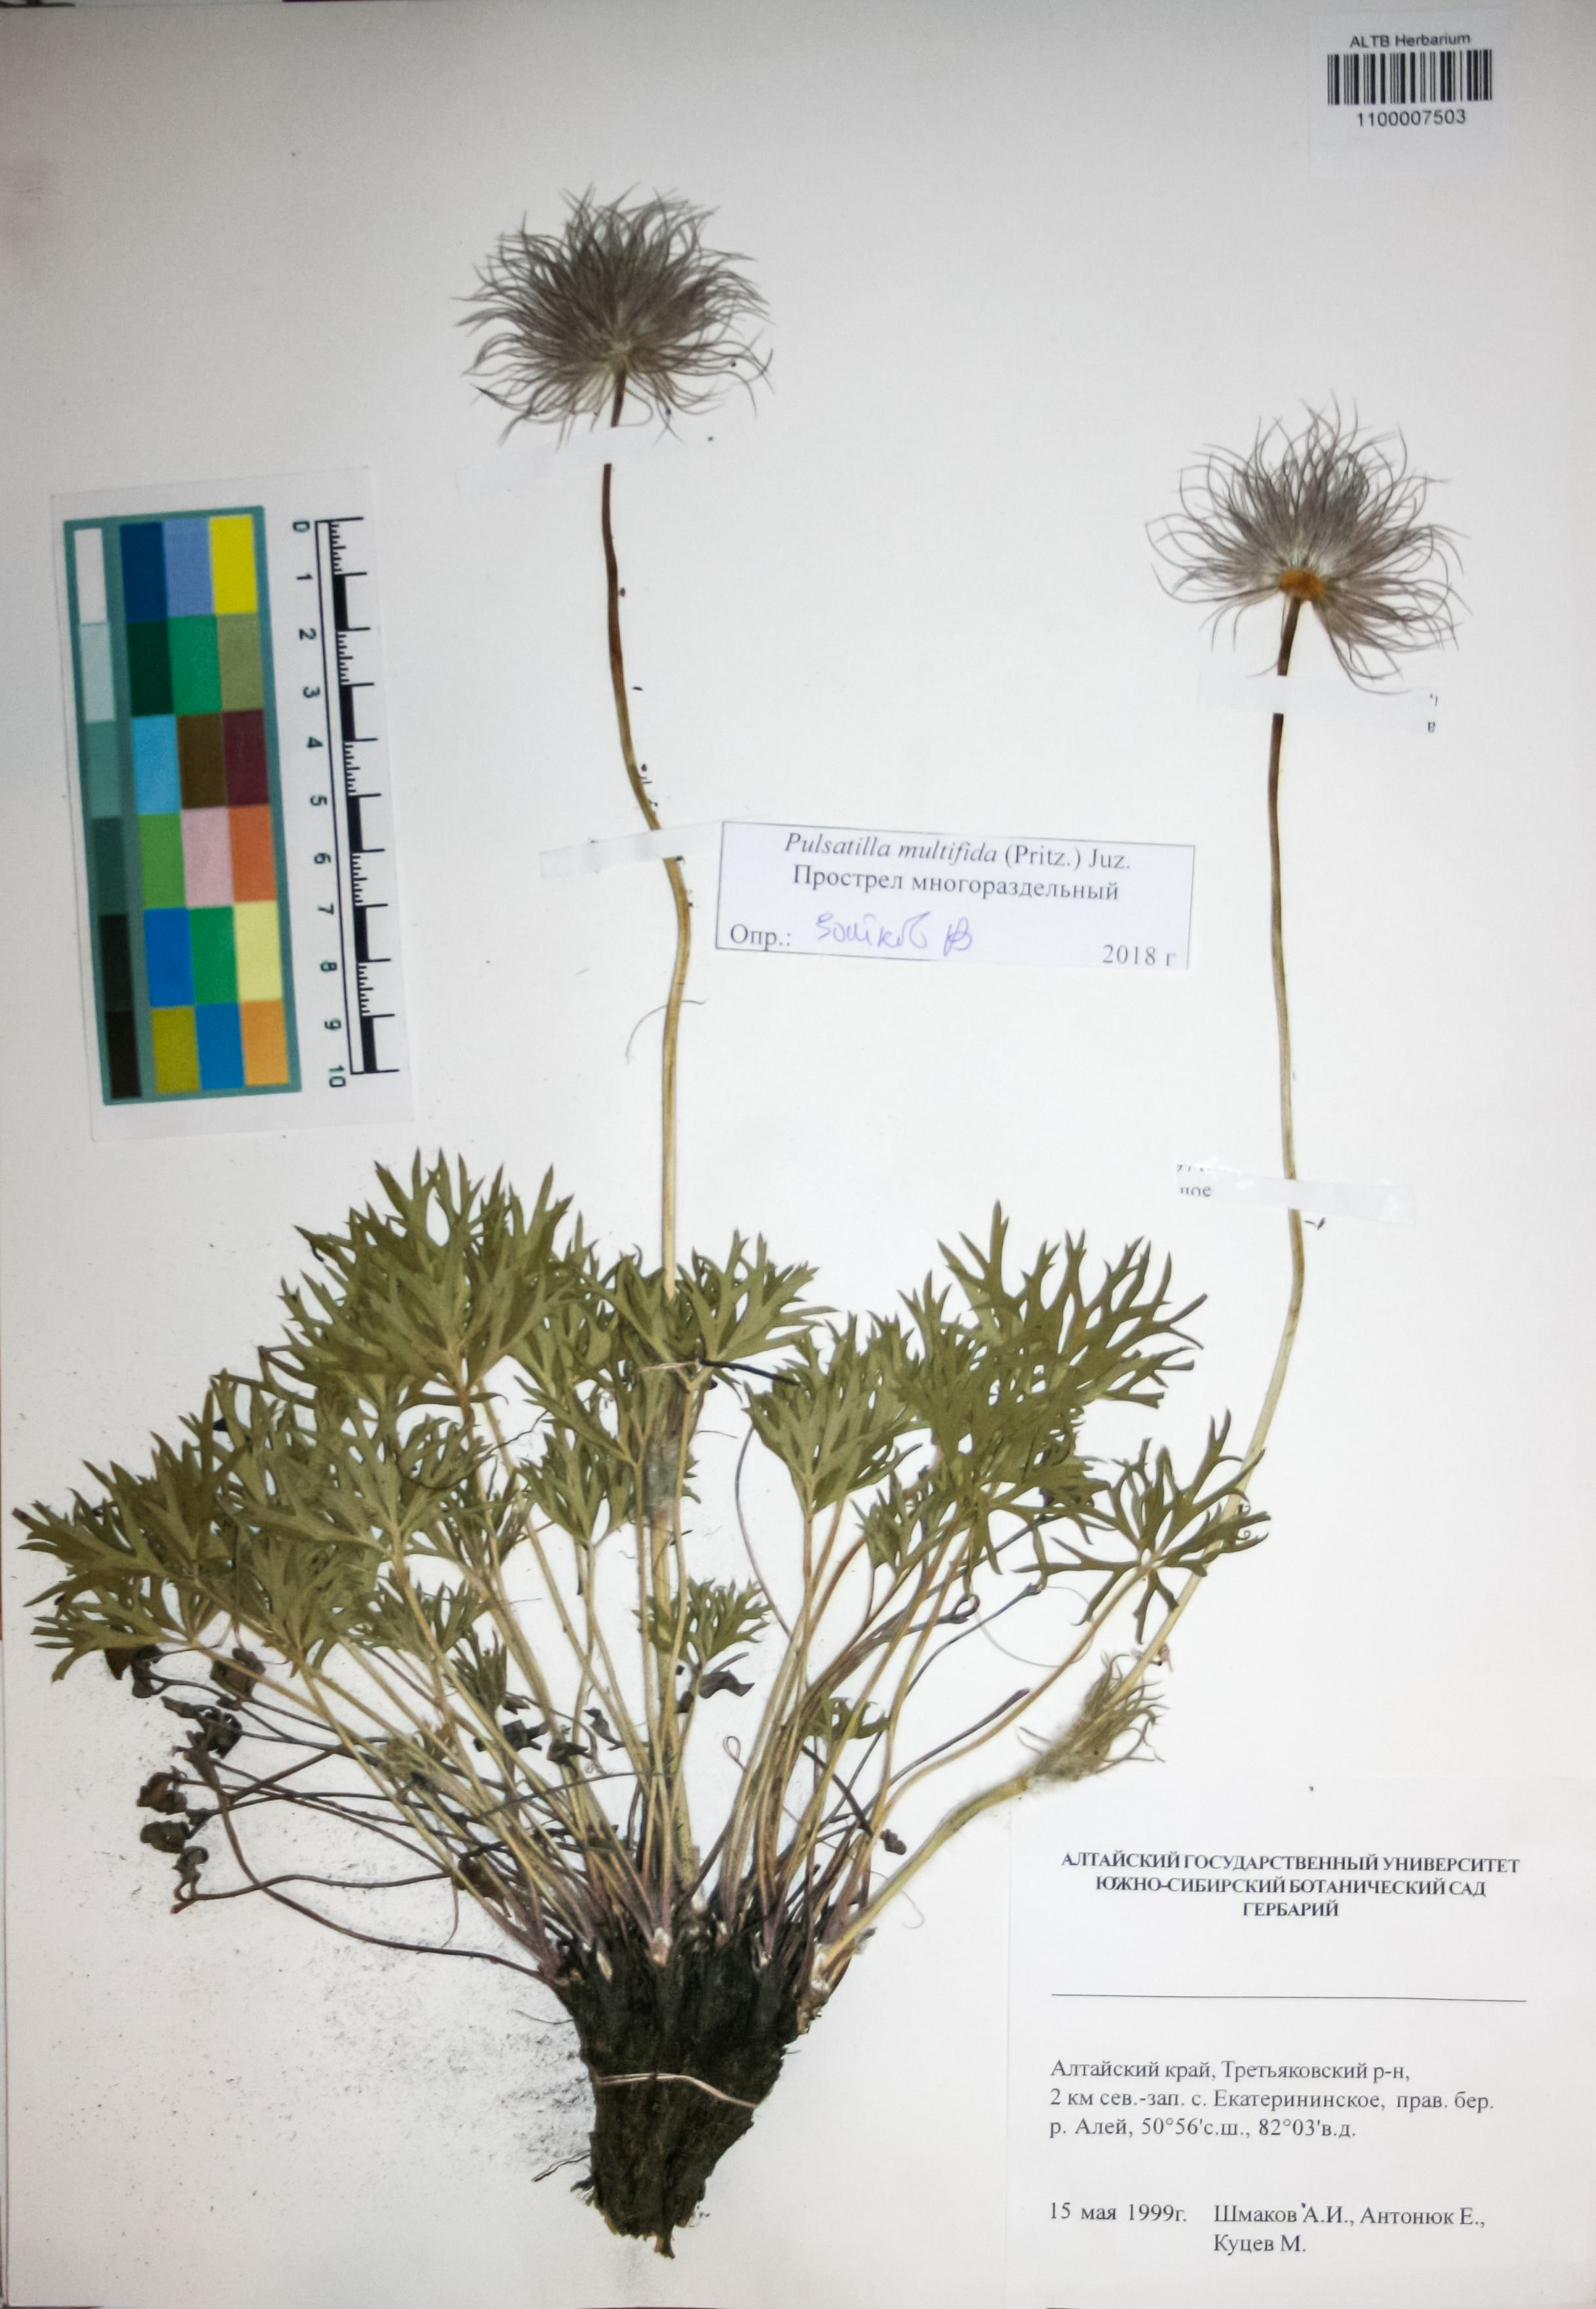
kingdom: Plantae
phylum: Tracheophyta
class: Magnoliopsida
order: Ranunculales
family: Ranunculaceae
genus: Pulsatilla
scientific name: Pulsatilla patens
